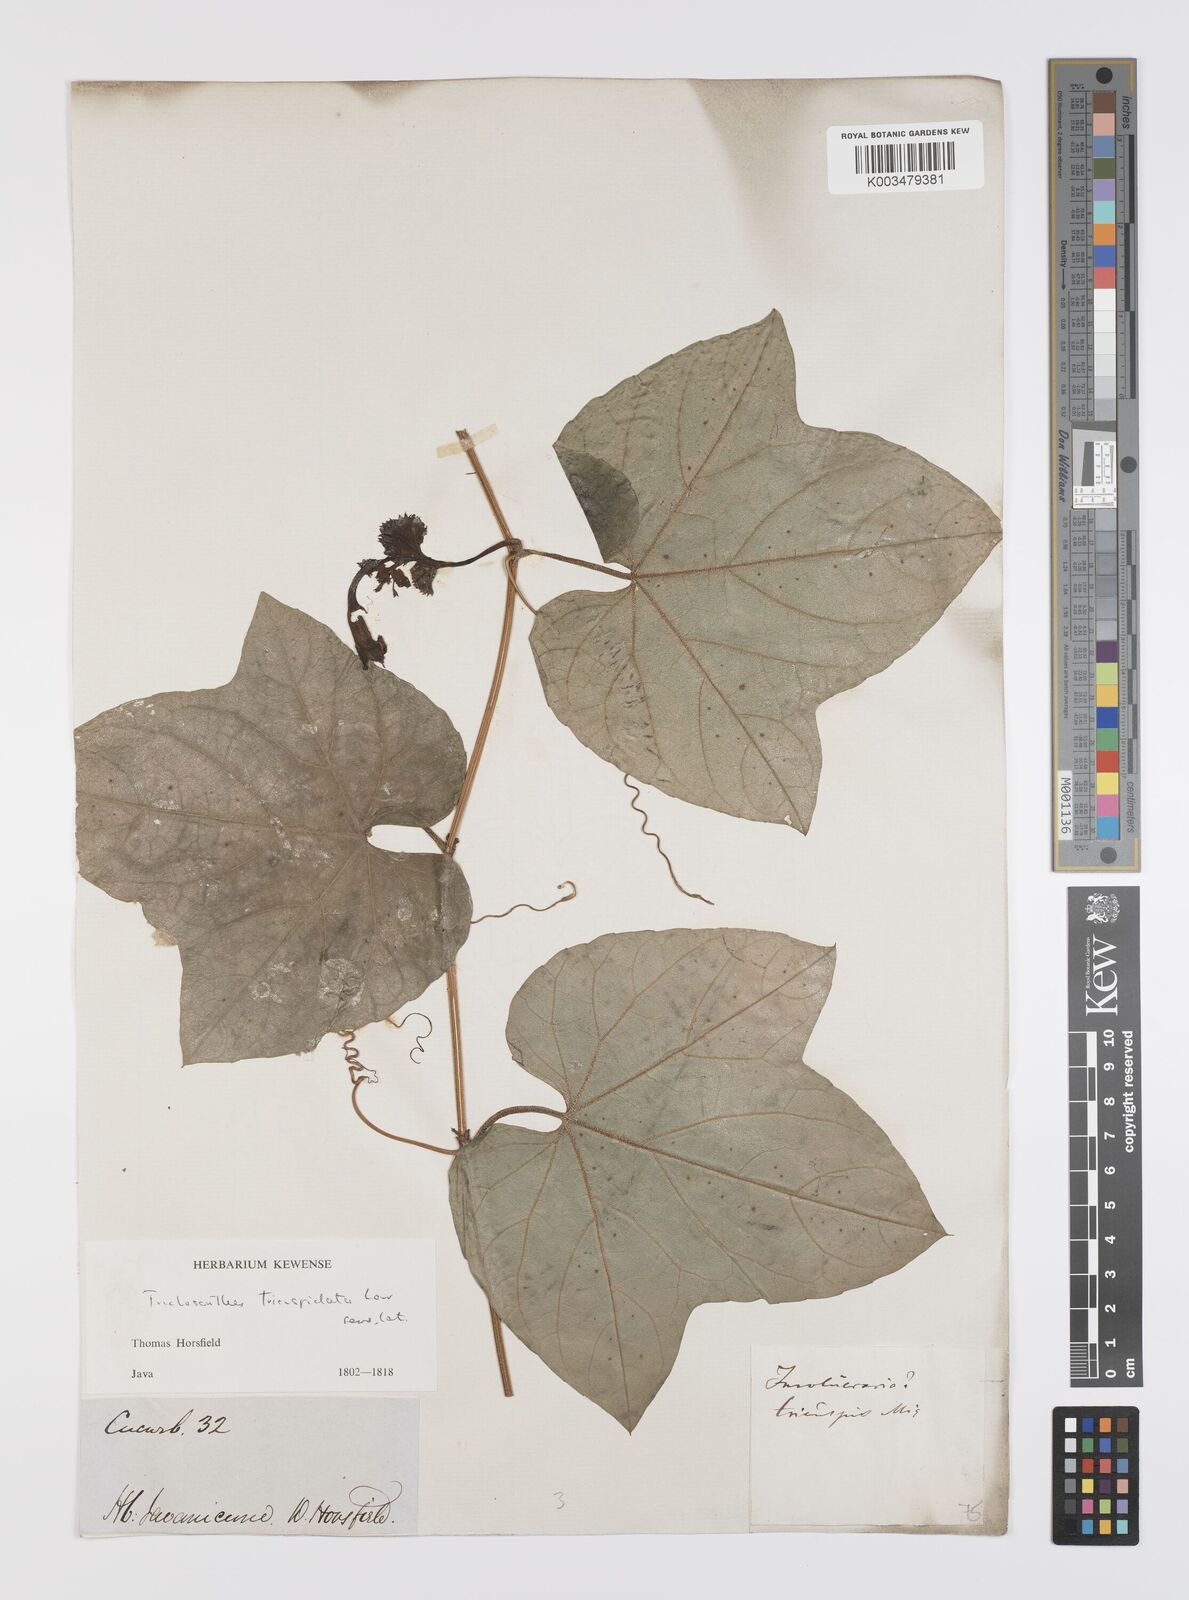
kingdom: Plantae
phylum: Tracheophyta
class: Magnoliopsida
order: Cucurbitales
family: Cucurbitaceae
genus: Trichosanthes
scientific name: Trichosanthes tricuspidata
